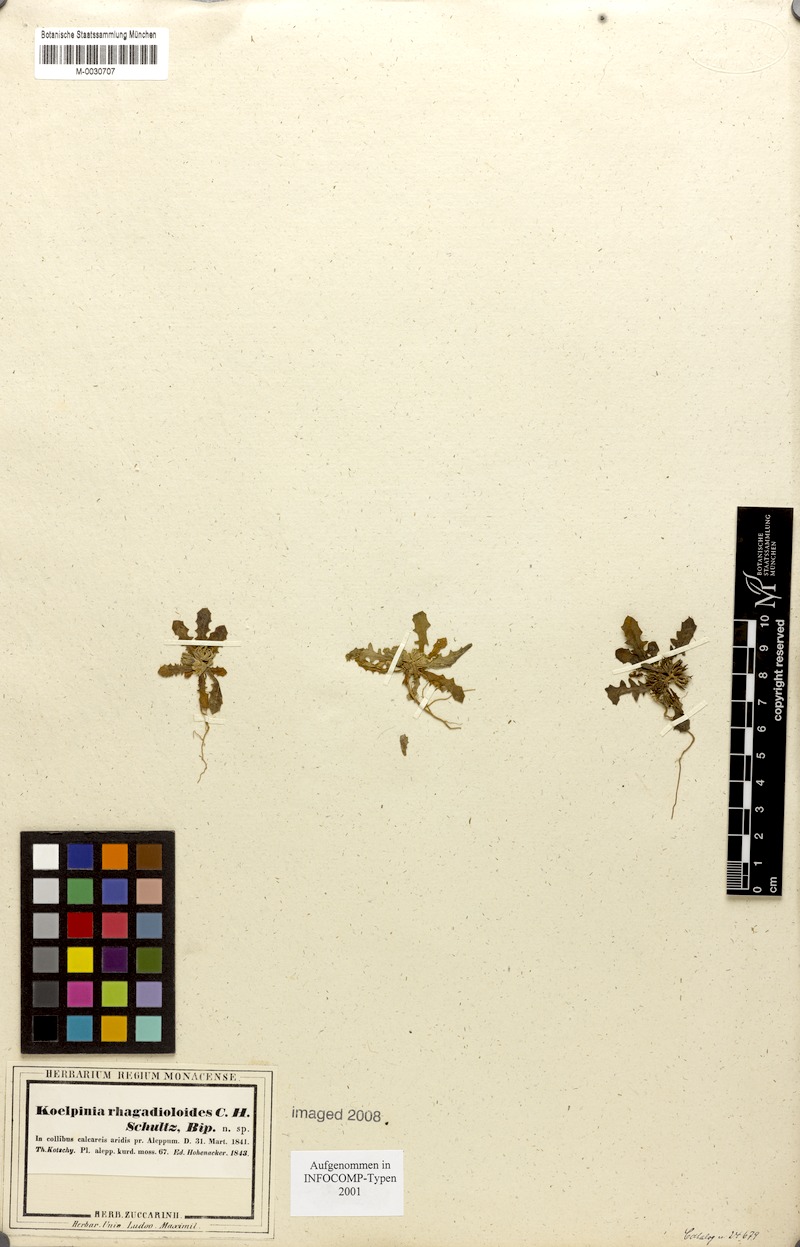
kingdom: Plantae
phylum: Tracheophyta
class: Magnoliopsida
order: Asterales
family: Asteraceae
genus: Koelpinia
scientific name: Koelpinia rhagadioloides
